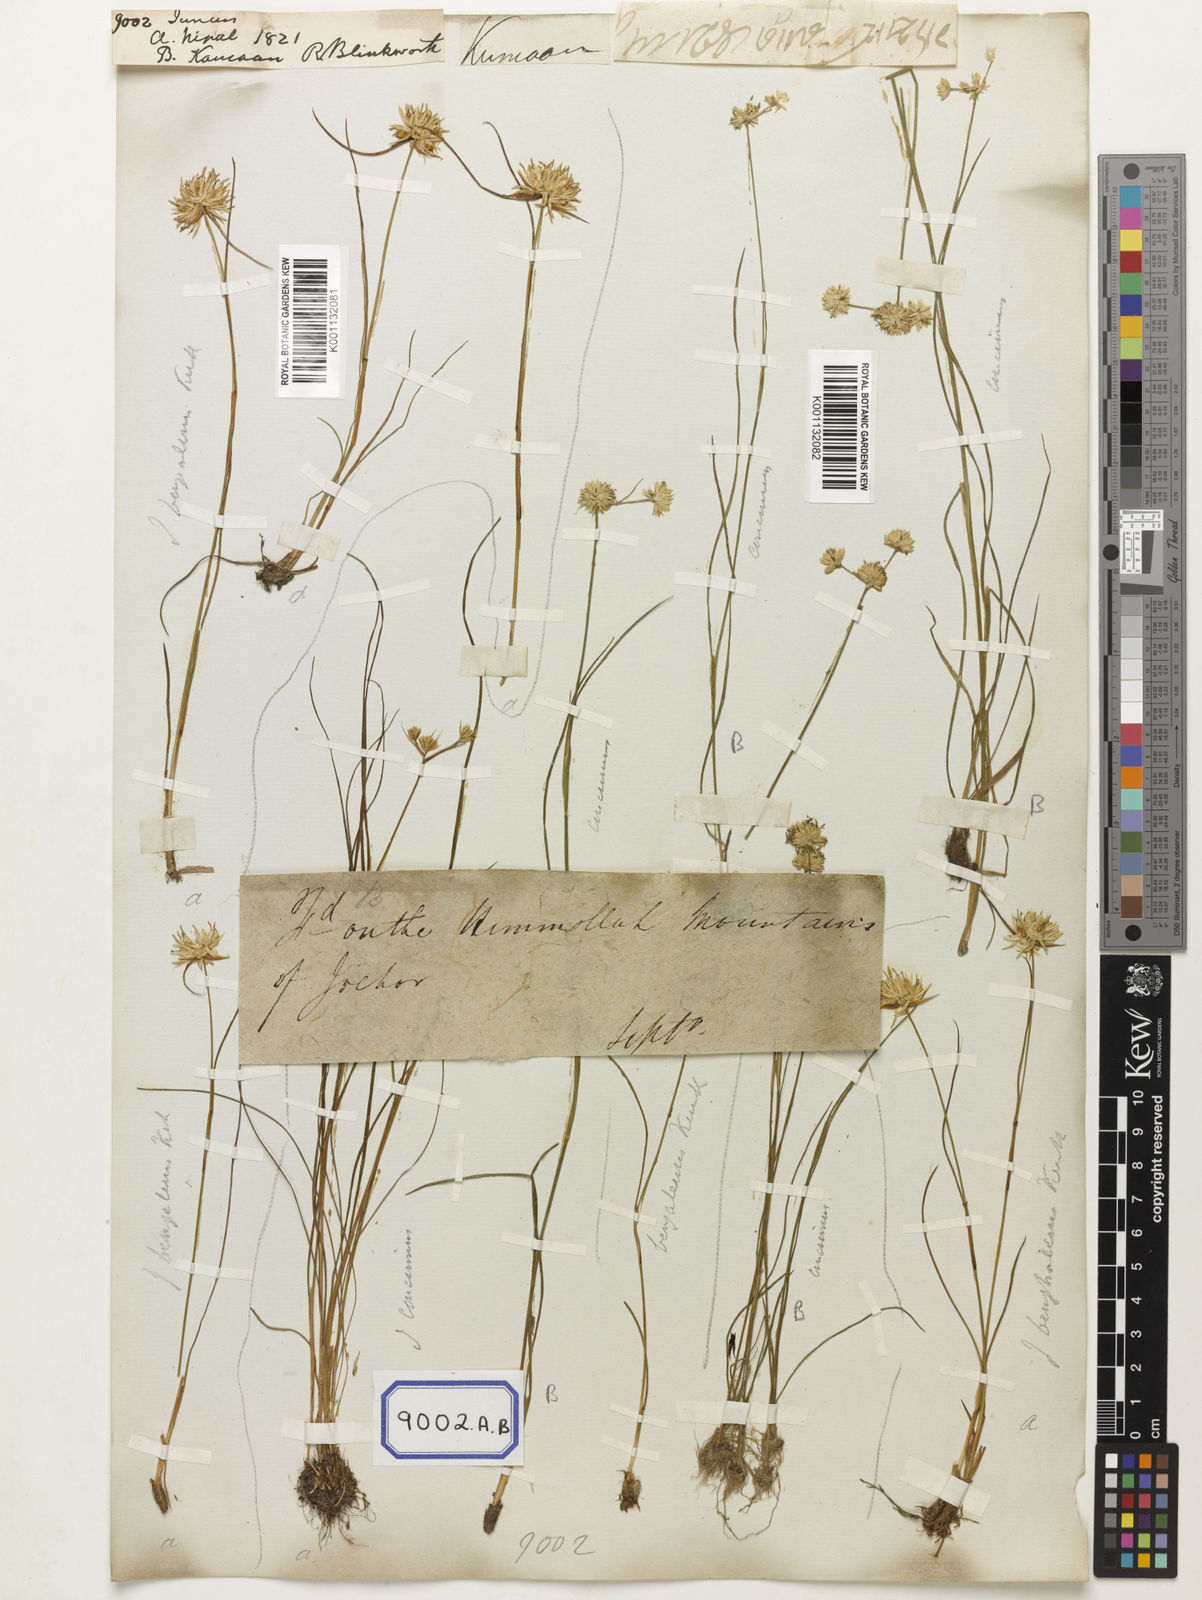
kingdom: Plantae
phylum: Tracheophyta
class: Liliopsida
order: Poales
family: Juncaceae
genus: Juncus
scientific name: Juncus
